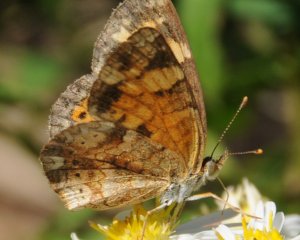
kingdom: Animalia
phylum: Arthropoda
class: Insecta
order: Lepidoptera
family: Nymphalidae
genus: Phyciodes
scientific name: Phyciodes tharos
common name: Northern Crescent
